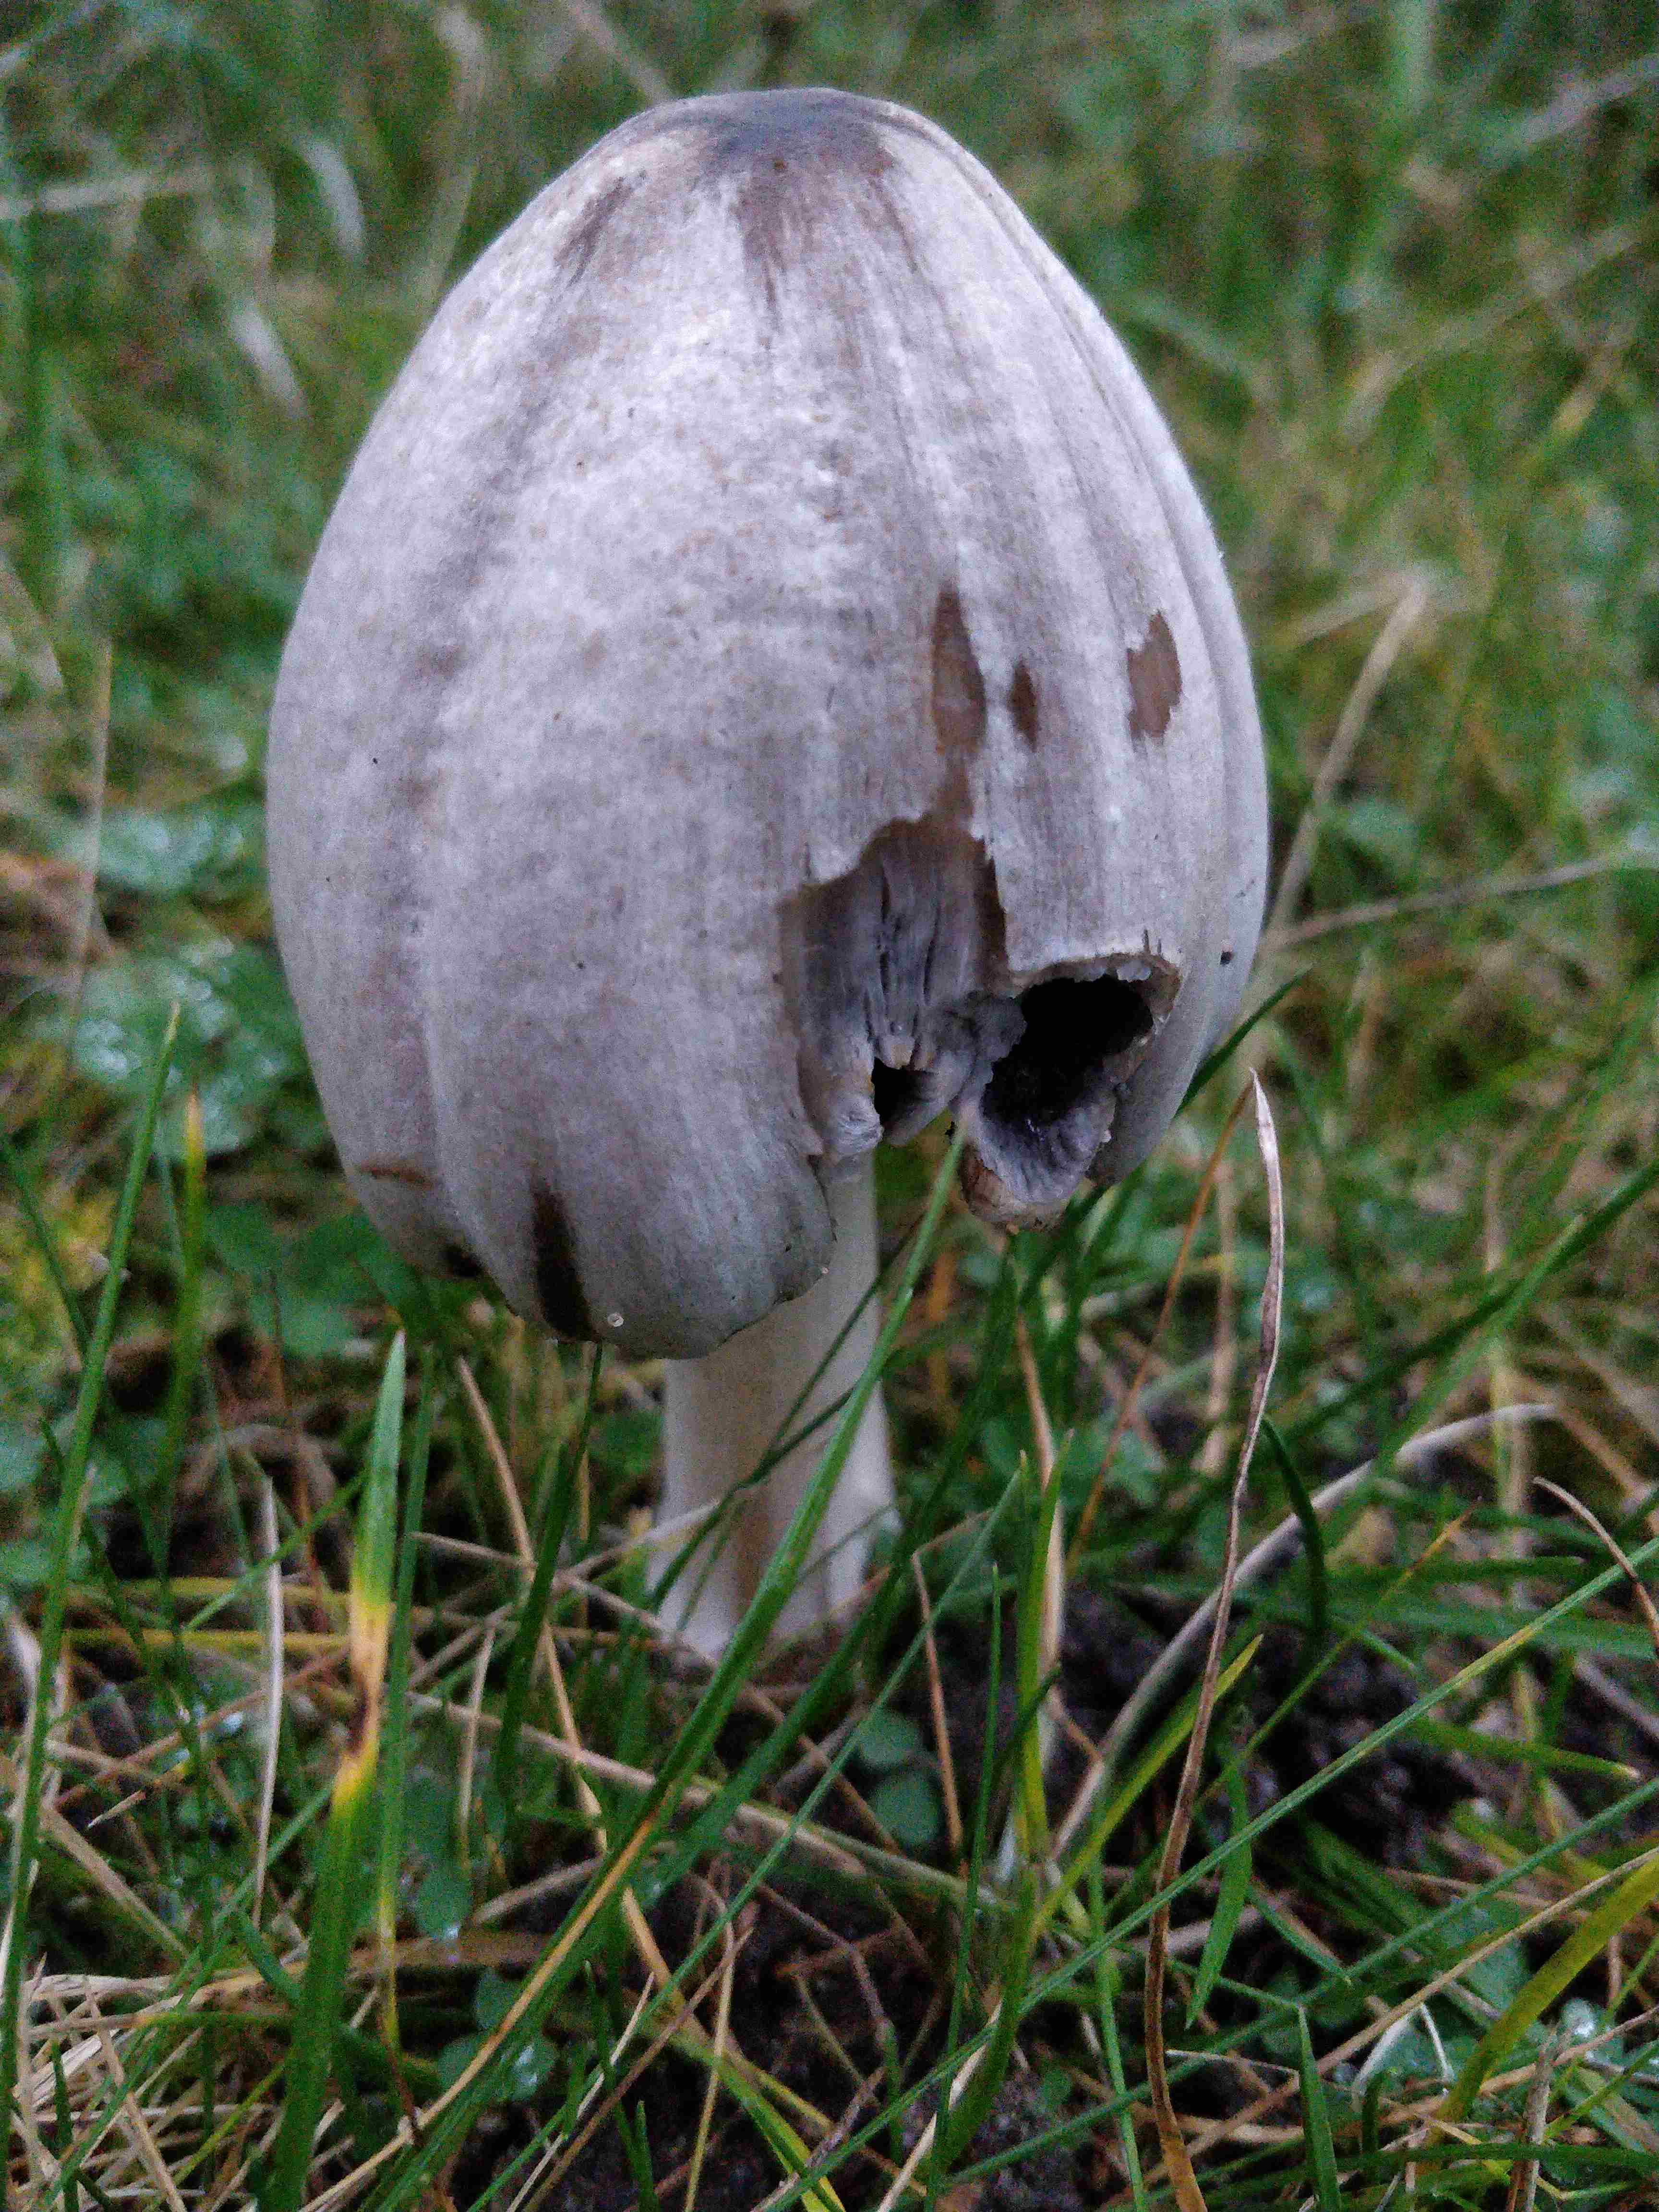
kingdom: Fungi
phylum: Basidiomycota
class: Agaricomycetes
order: Agaricales
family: Psathyrellaceae
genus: Coprinopsis
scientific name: Coprinopsis atramentaria
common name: almindelig blækhat
